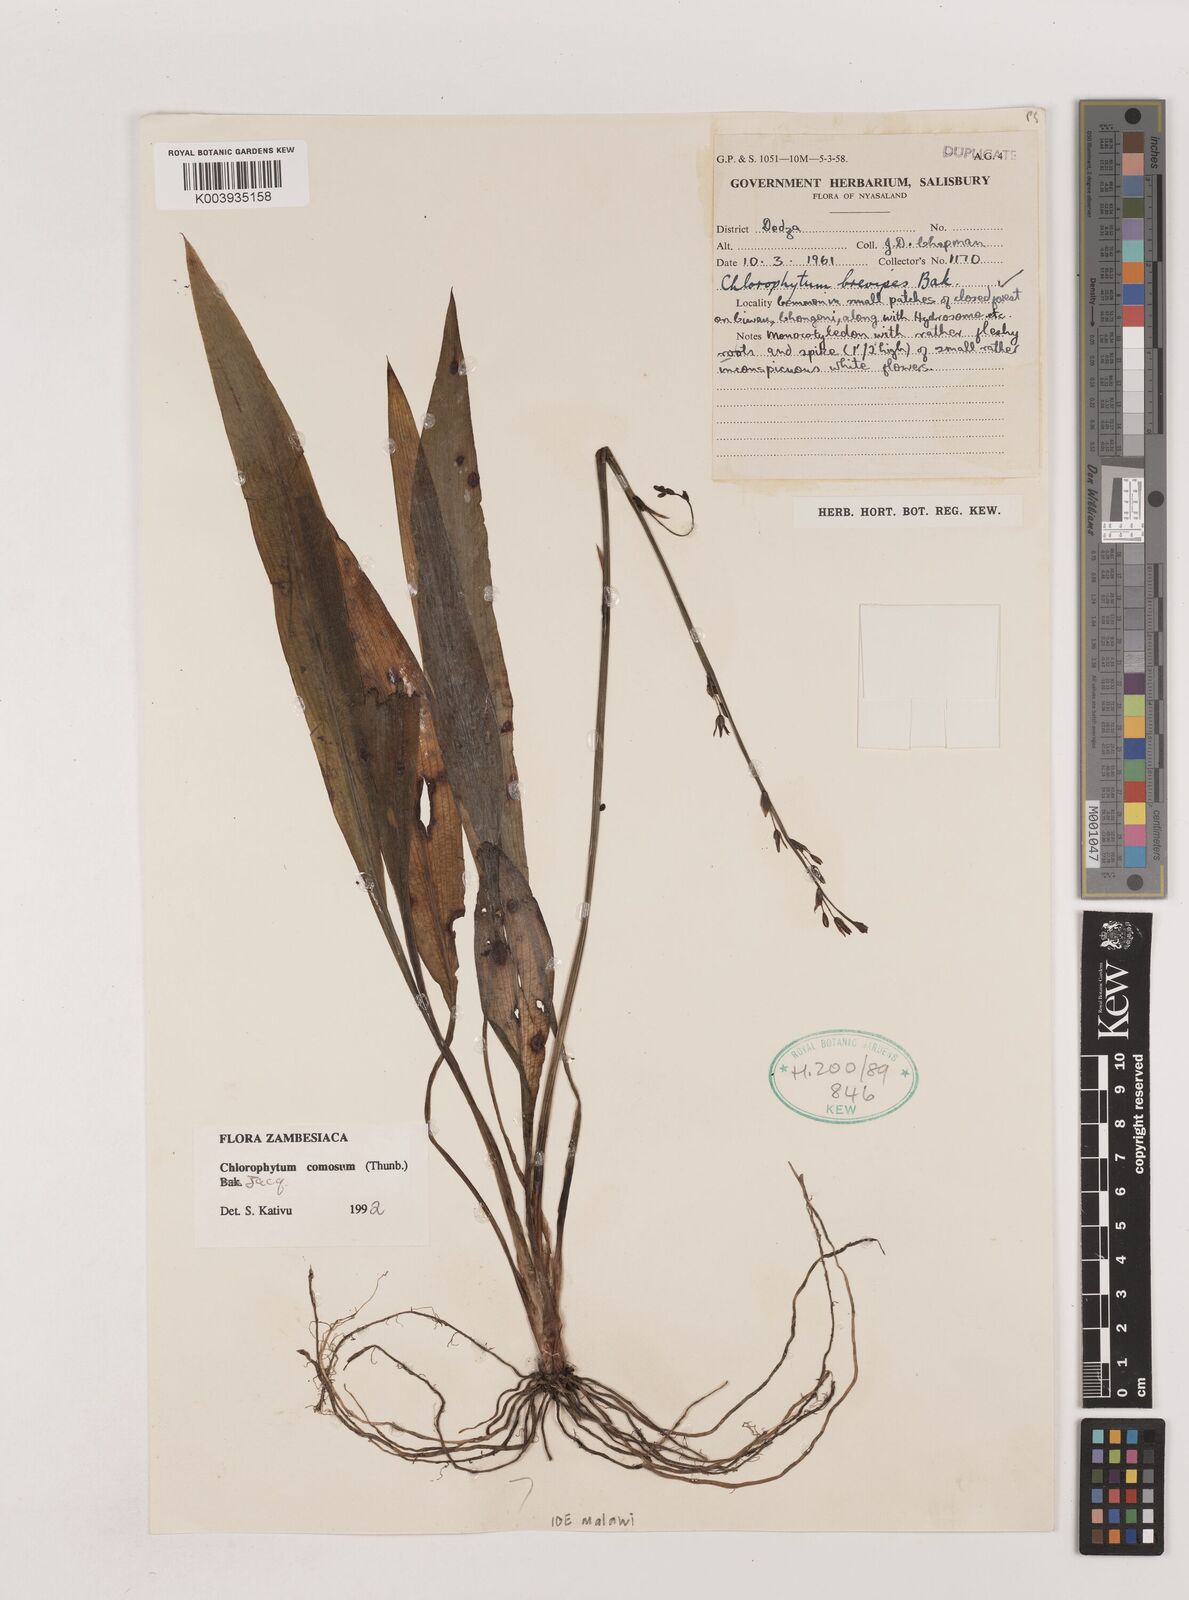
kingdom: Plantae
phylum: Tracheophyta
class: Liliopsida
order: Asparagales
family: Asparagaceae
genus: Chlorophytum
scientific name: Chlorophytum comosum
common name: Spider plant
